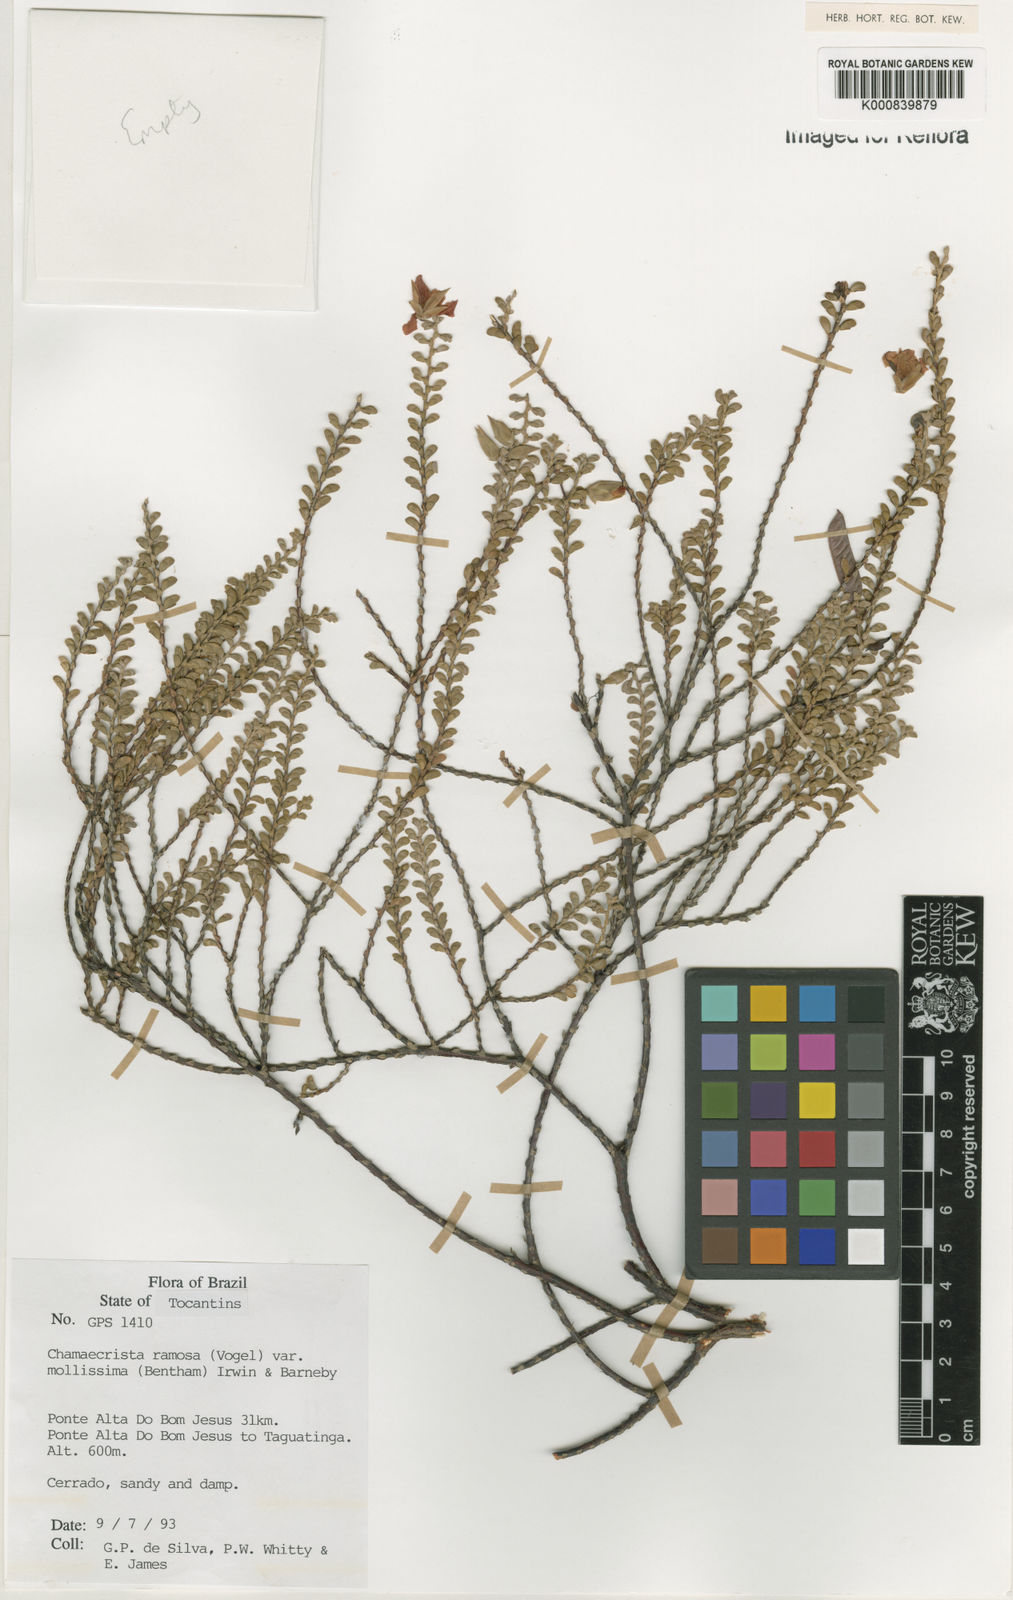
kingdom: Plantae
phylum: Tracheophyta
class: Magnoliopsida
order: Fabales
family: Fabaceae
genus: Chamaecrista
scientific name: Chamaecrista ramosa
